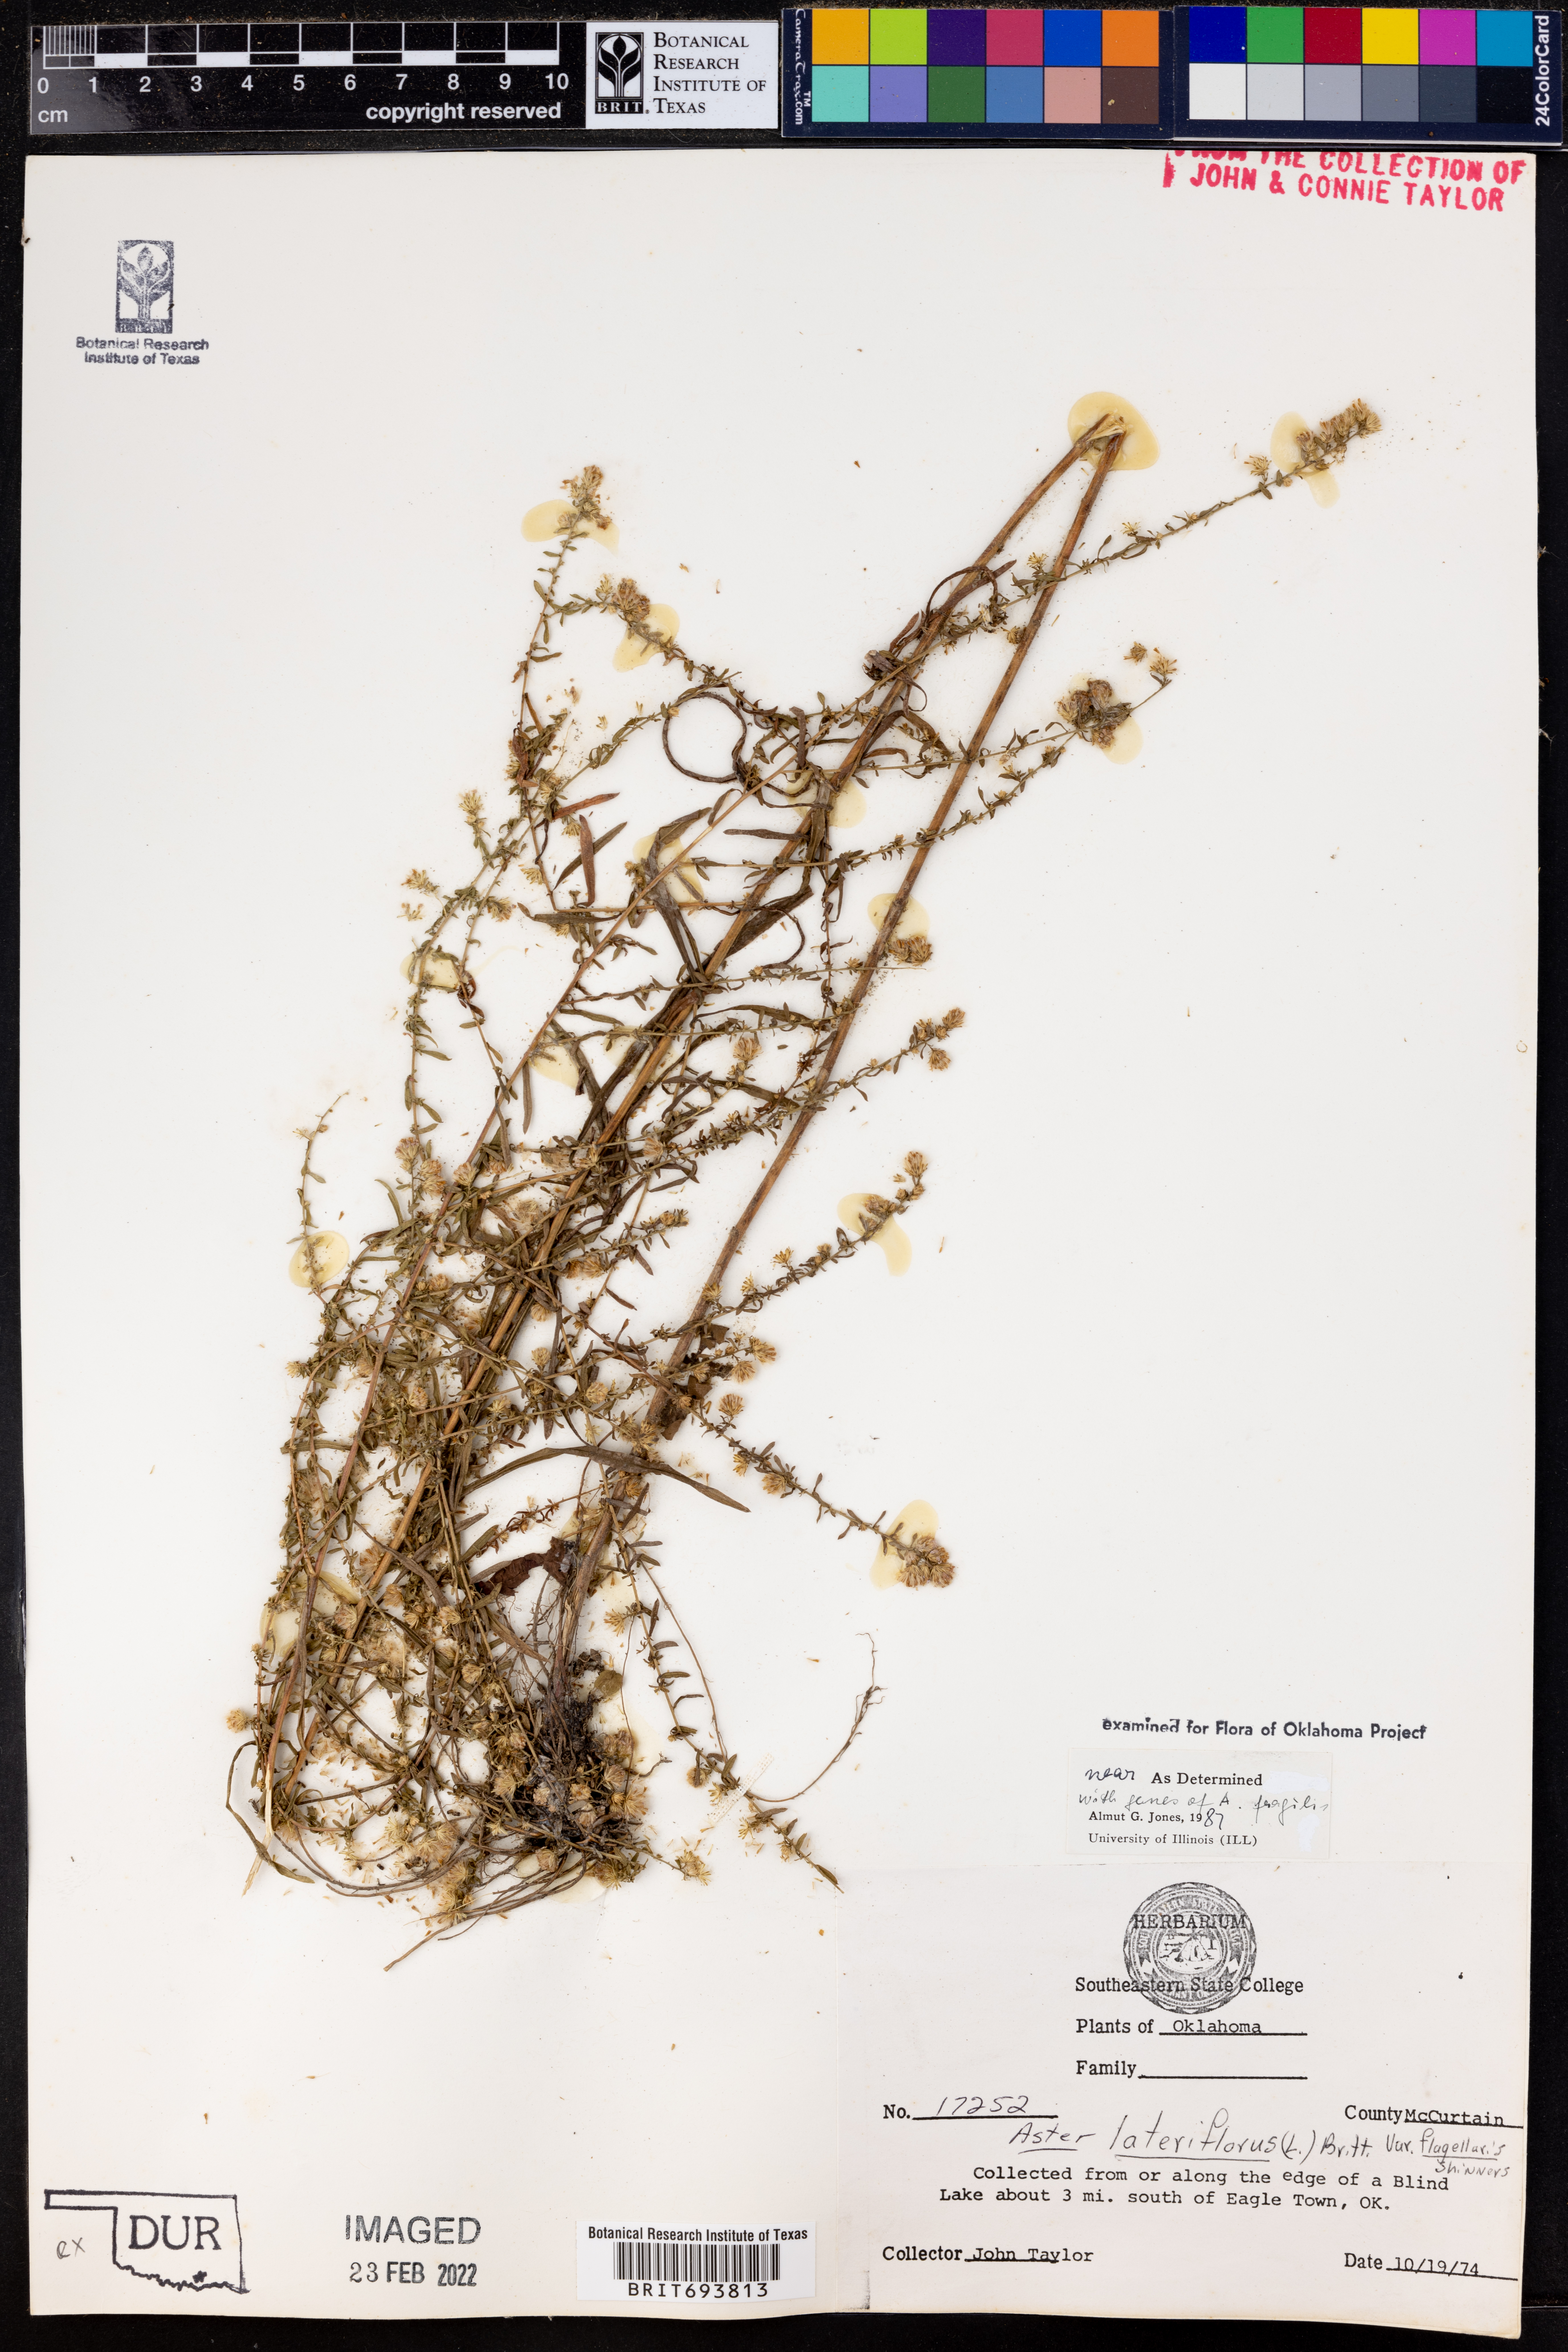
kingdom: Plantae
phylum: Tracheophyta
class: Magnoliopsida
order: Asterales
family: Asteraceae
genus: Symphyotrichum
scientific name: Symphyotrichum lateriflorum
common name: Calico aster
